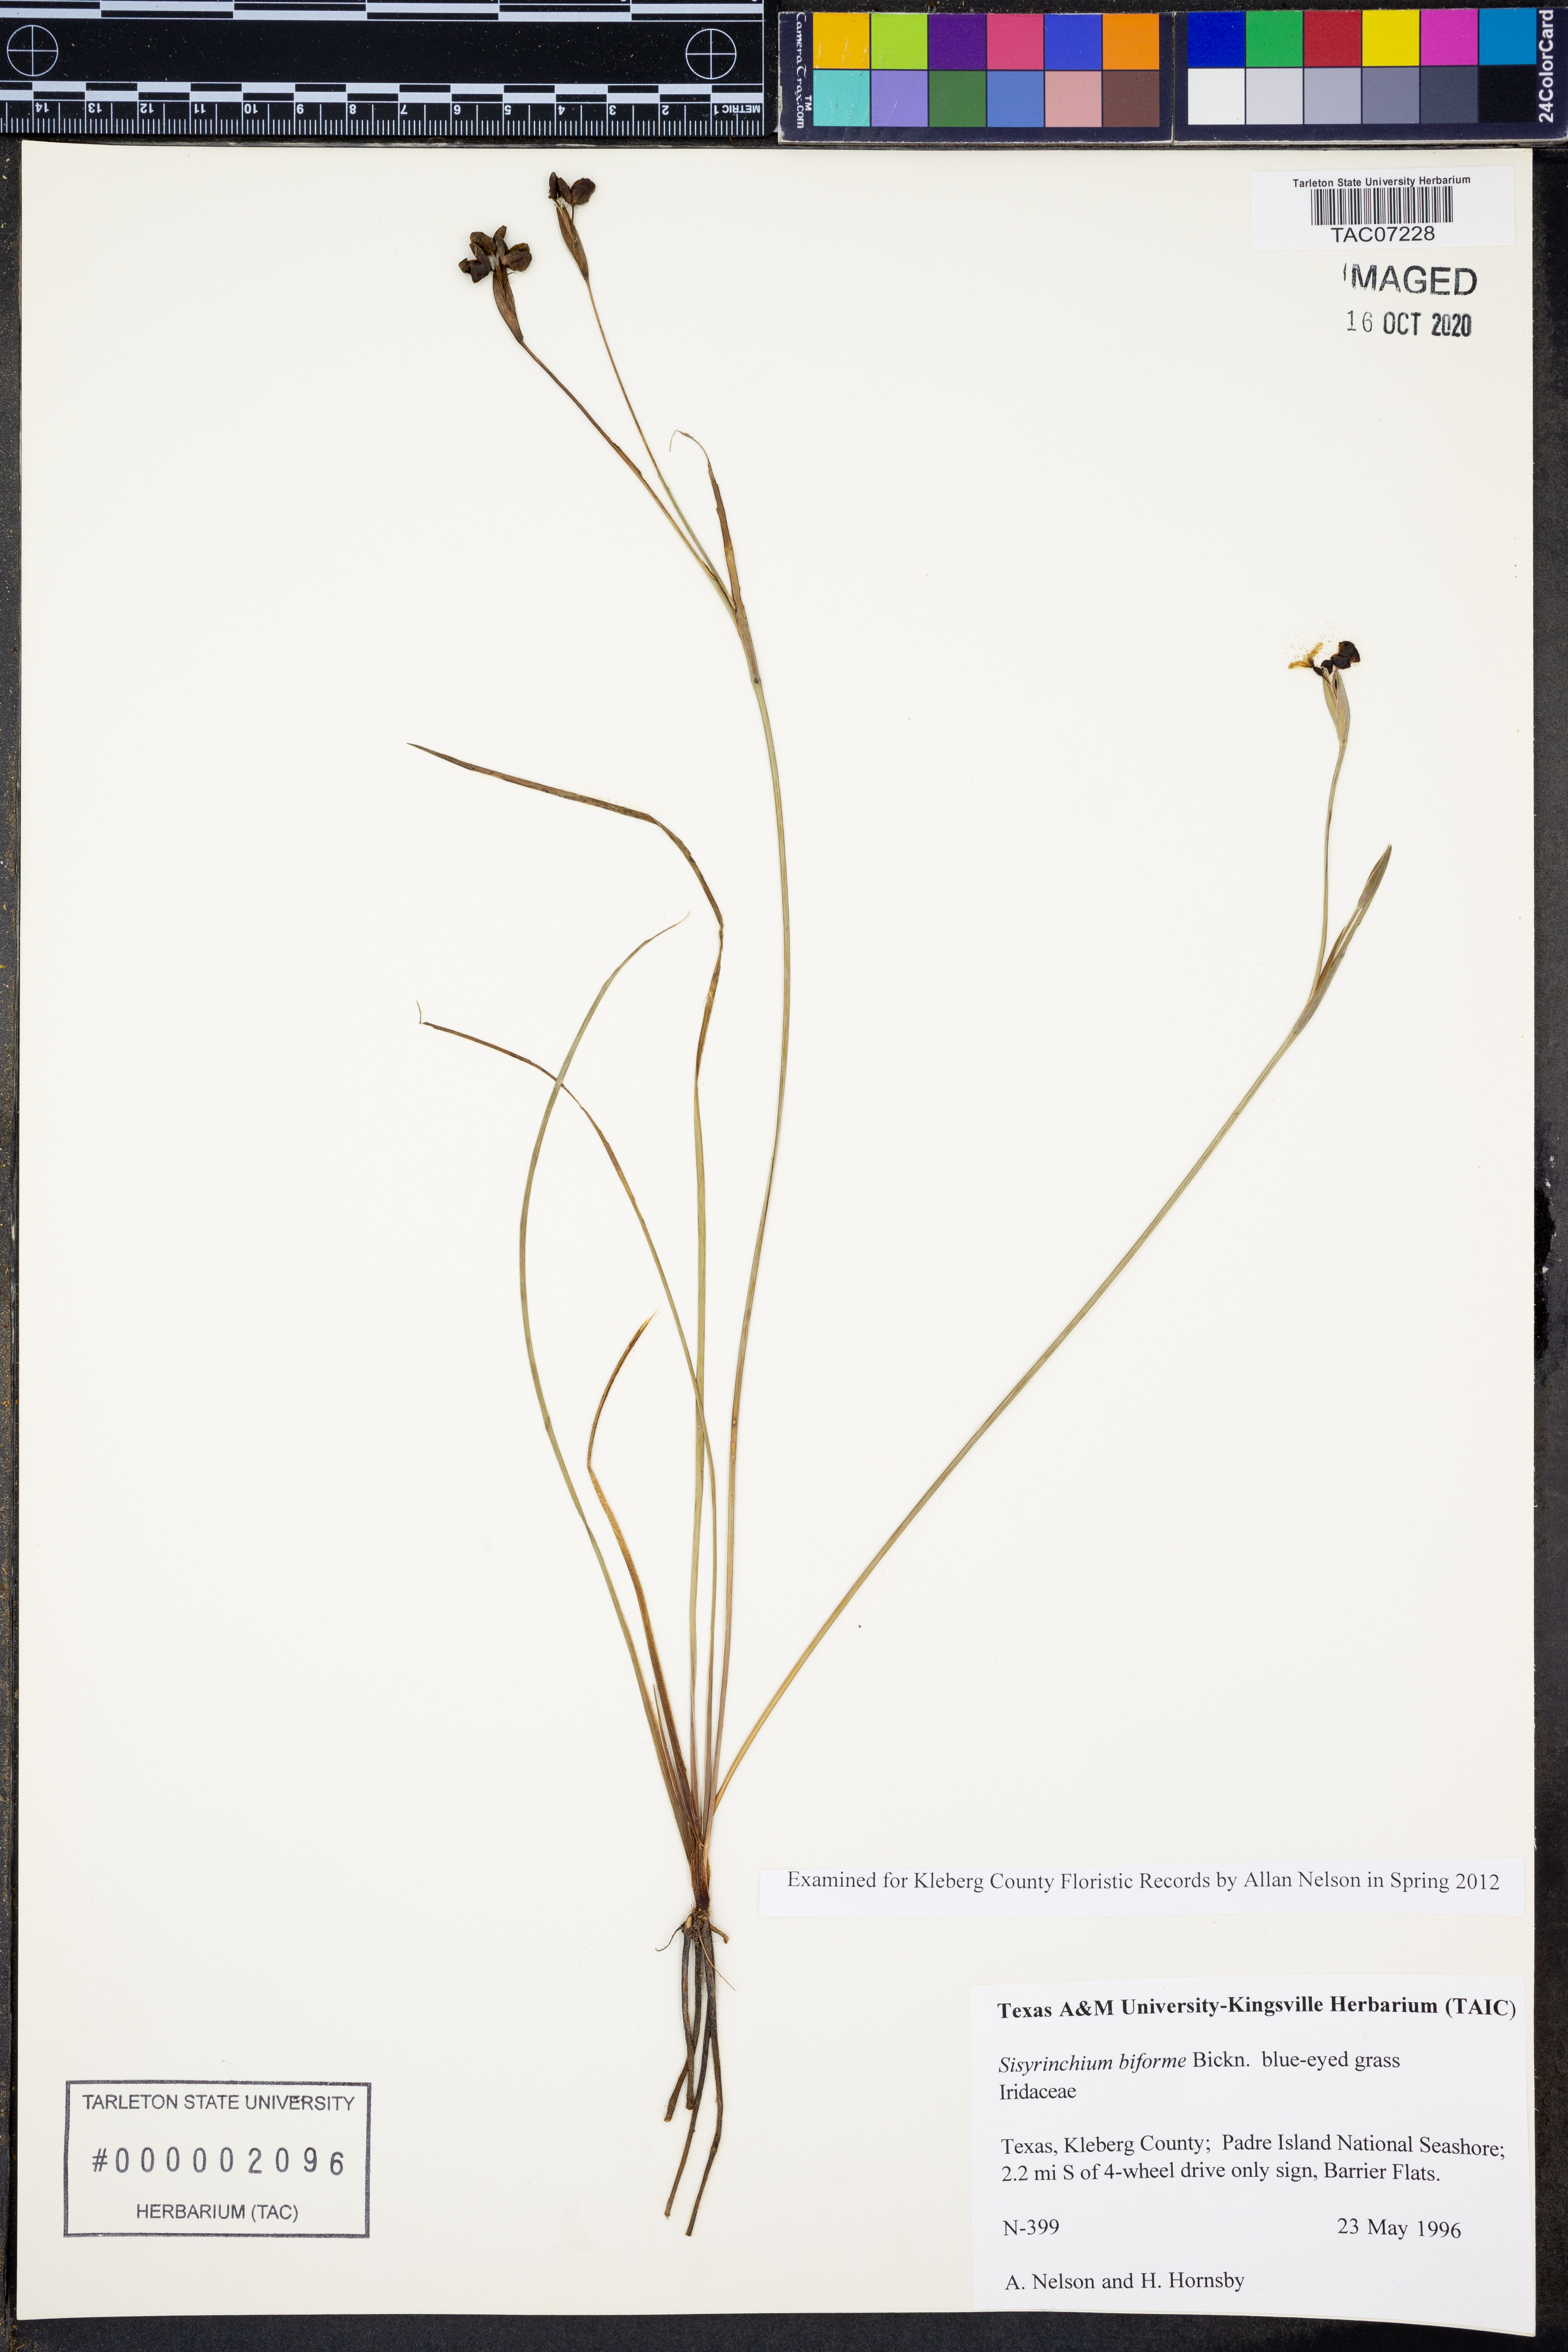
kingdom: Plantae
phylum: Tracheophyta
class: Liliopsida
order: Asparagales
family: Iridaceae
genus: Sisyrinchium
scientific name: Sisyrinchium biforme
